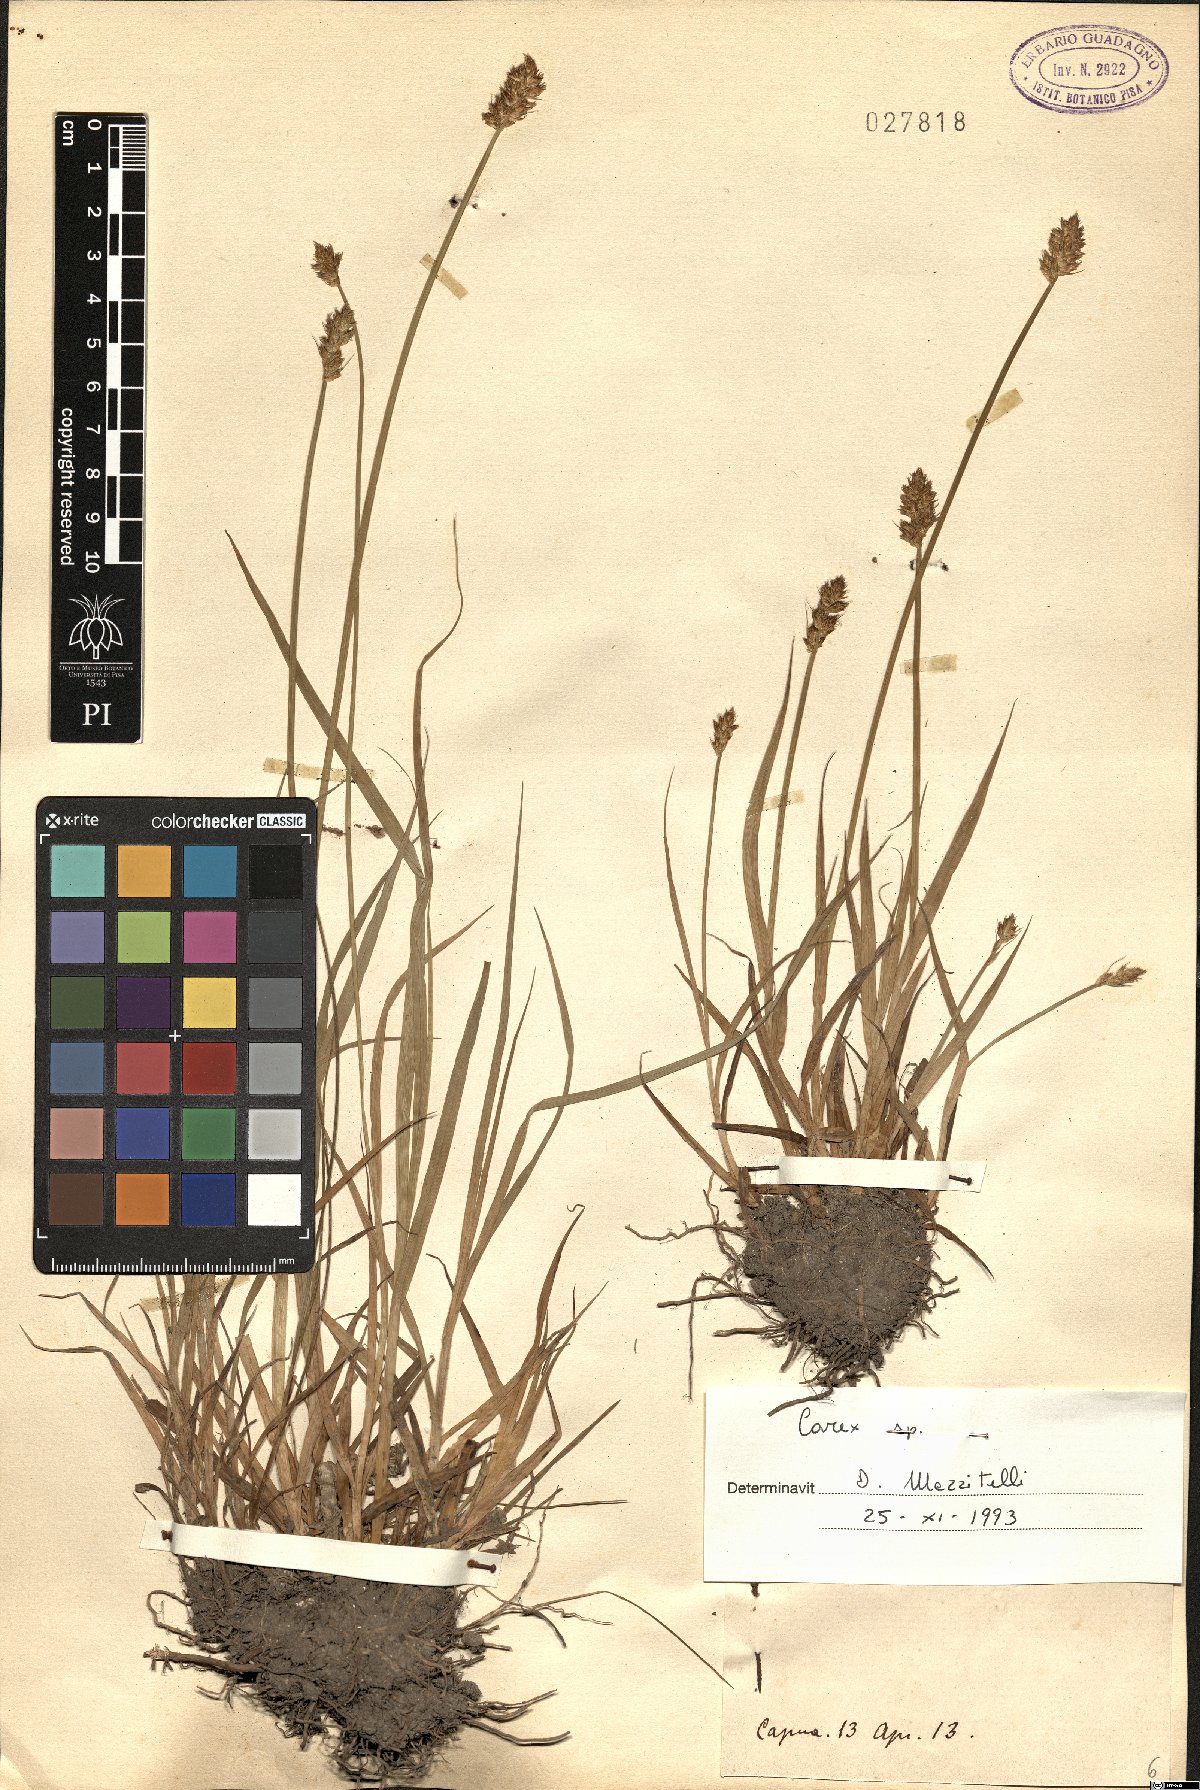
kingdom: Plantae
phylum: Tracheophyta
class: Liliopsida
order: Poales
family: Cyperaceae
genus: Carex
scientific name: Carex
